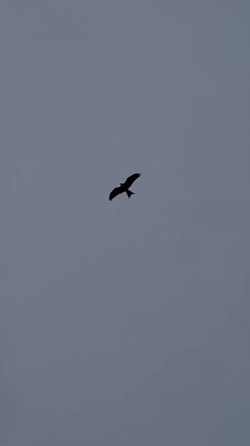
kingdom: Animalia
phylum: Chordata
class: Aves
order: Accipitriformes
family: Accipitridae
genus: Milvus
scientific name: Milvus milvus
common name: Rød glente
